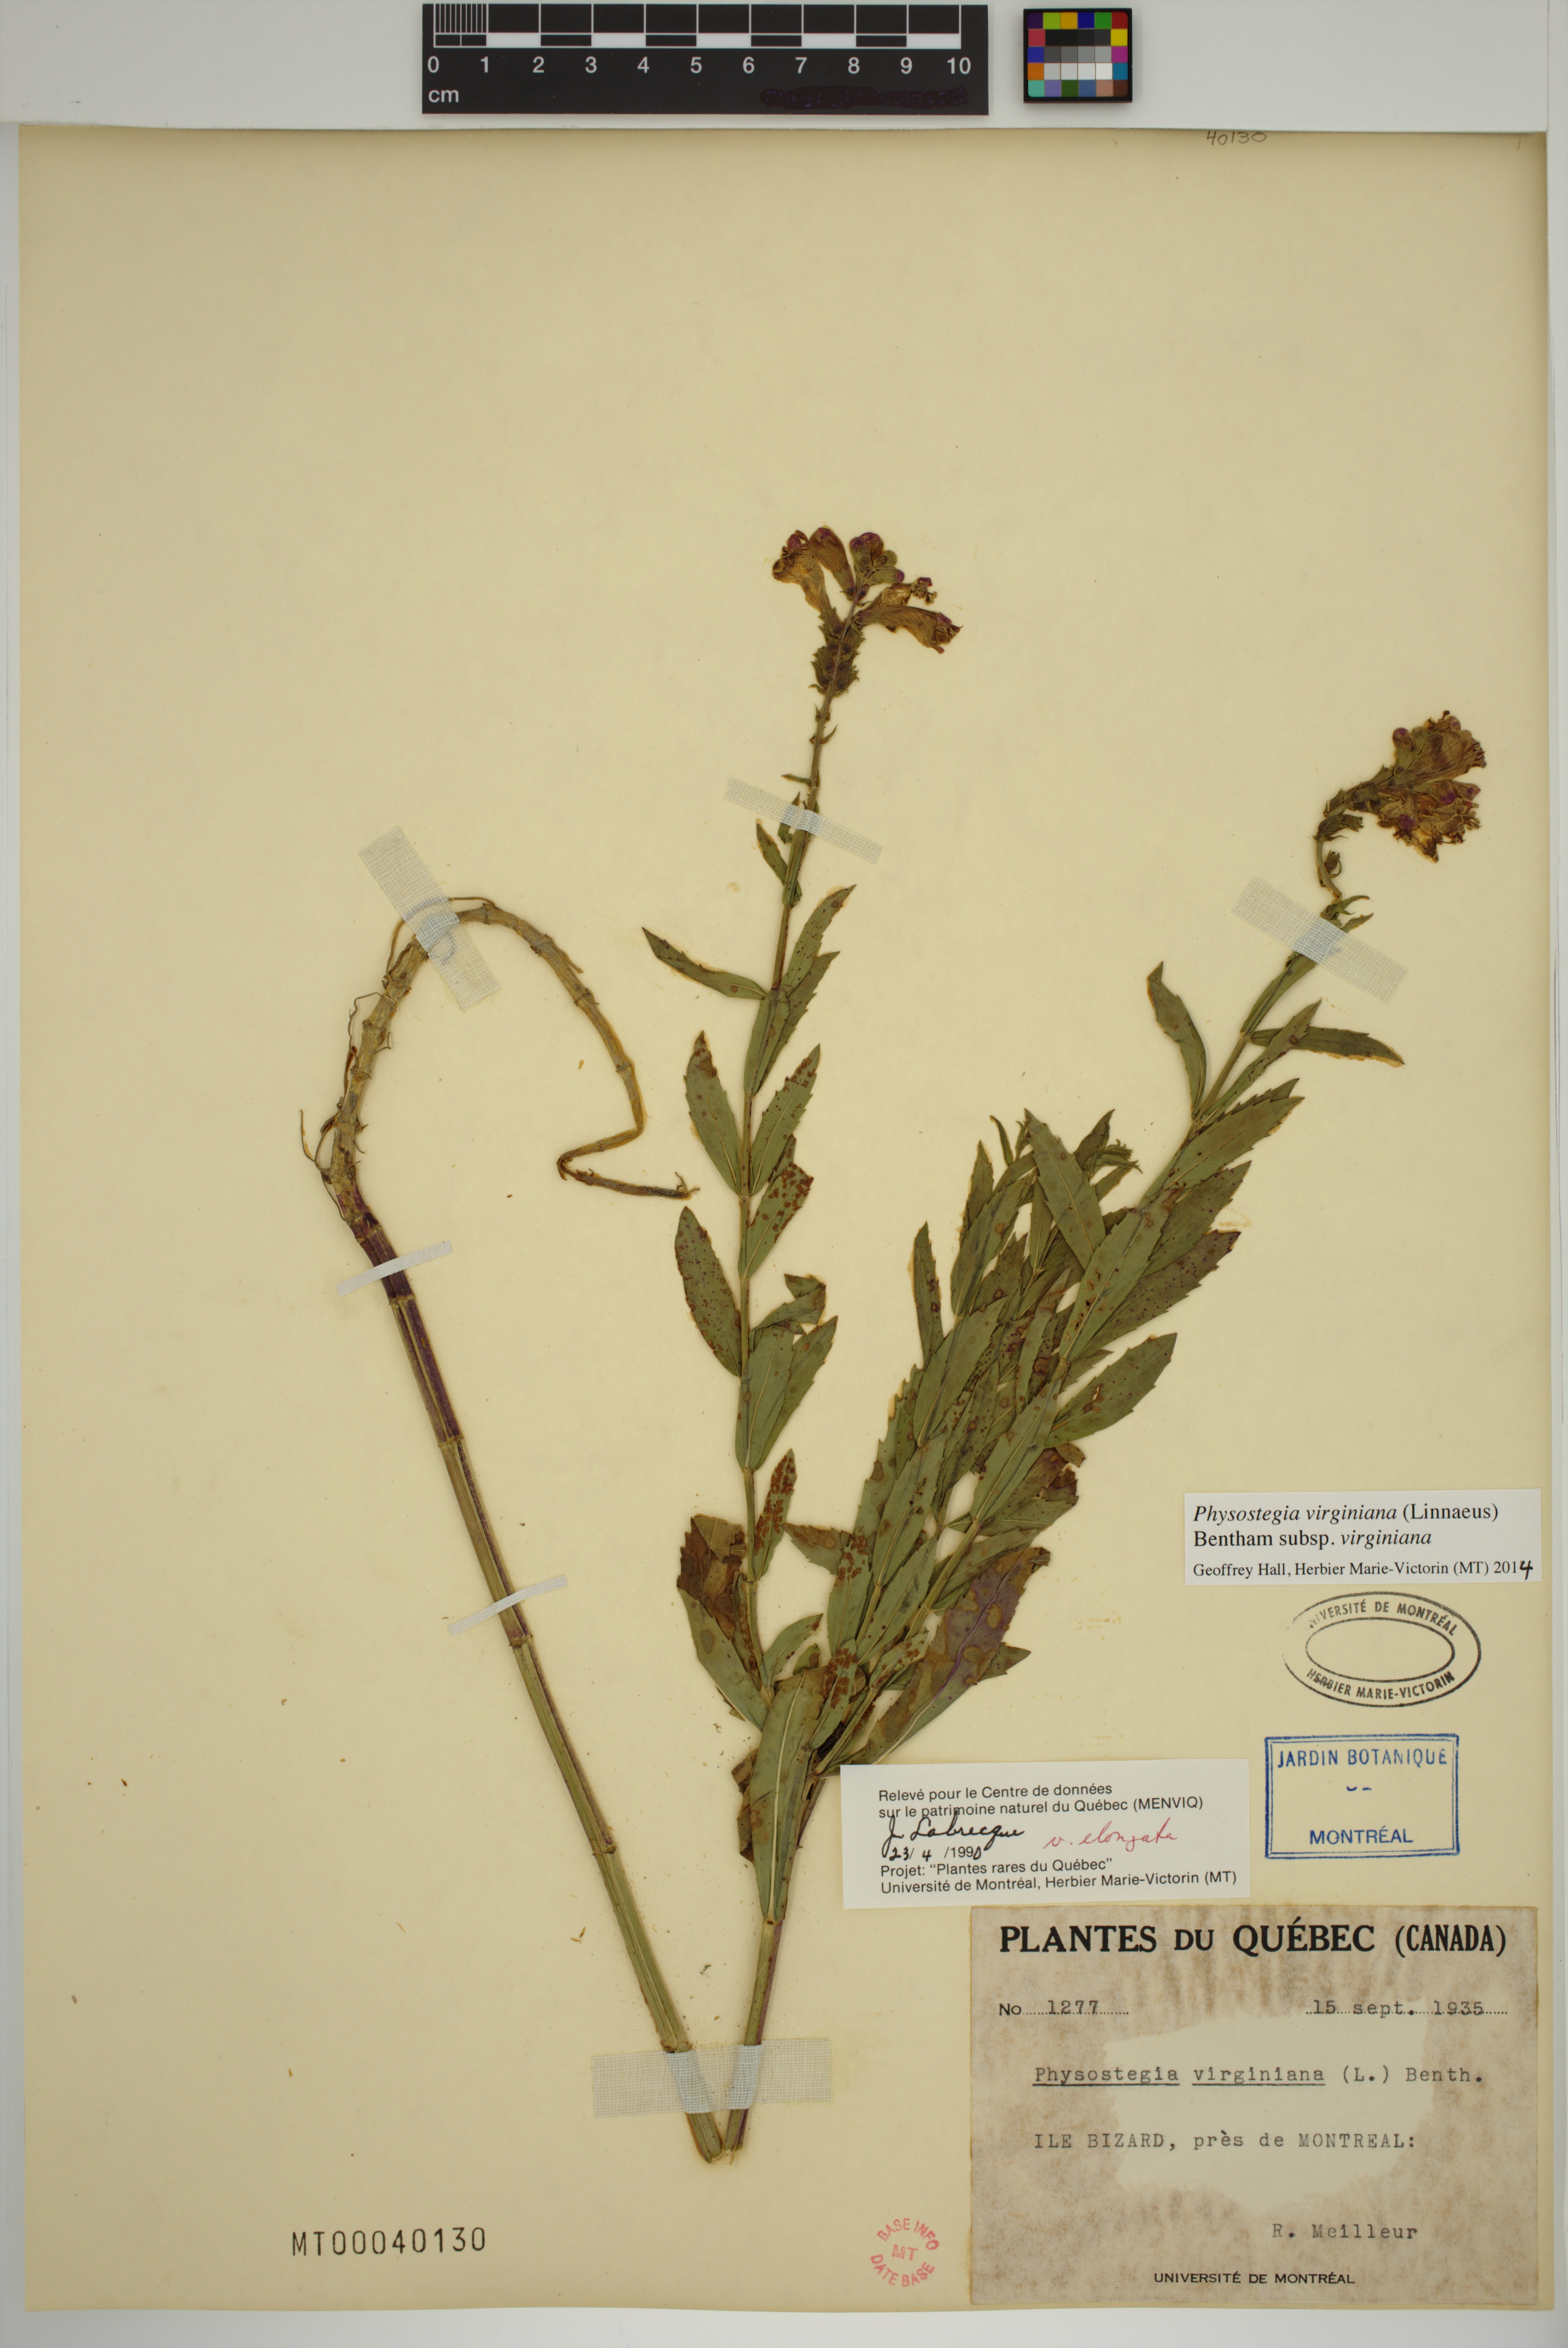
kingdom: Plantae
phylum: Tracheophyta
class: Magnoliopsida
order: Lamiales
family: Lamiaceae
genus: Physostegia
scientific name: Physostegia virginiana
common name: Obedient-plant
